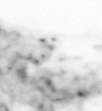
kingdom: Animalia
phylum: Chaetognatha
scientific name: Chaetognatha
